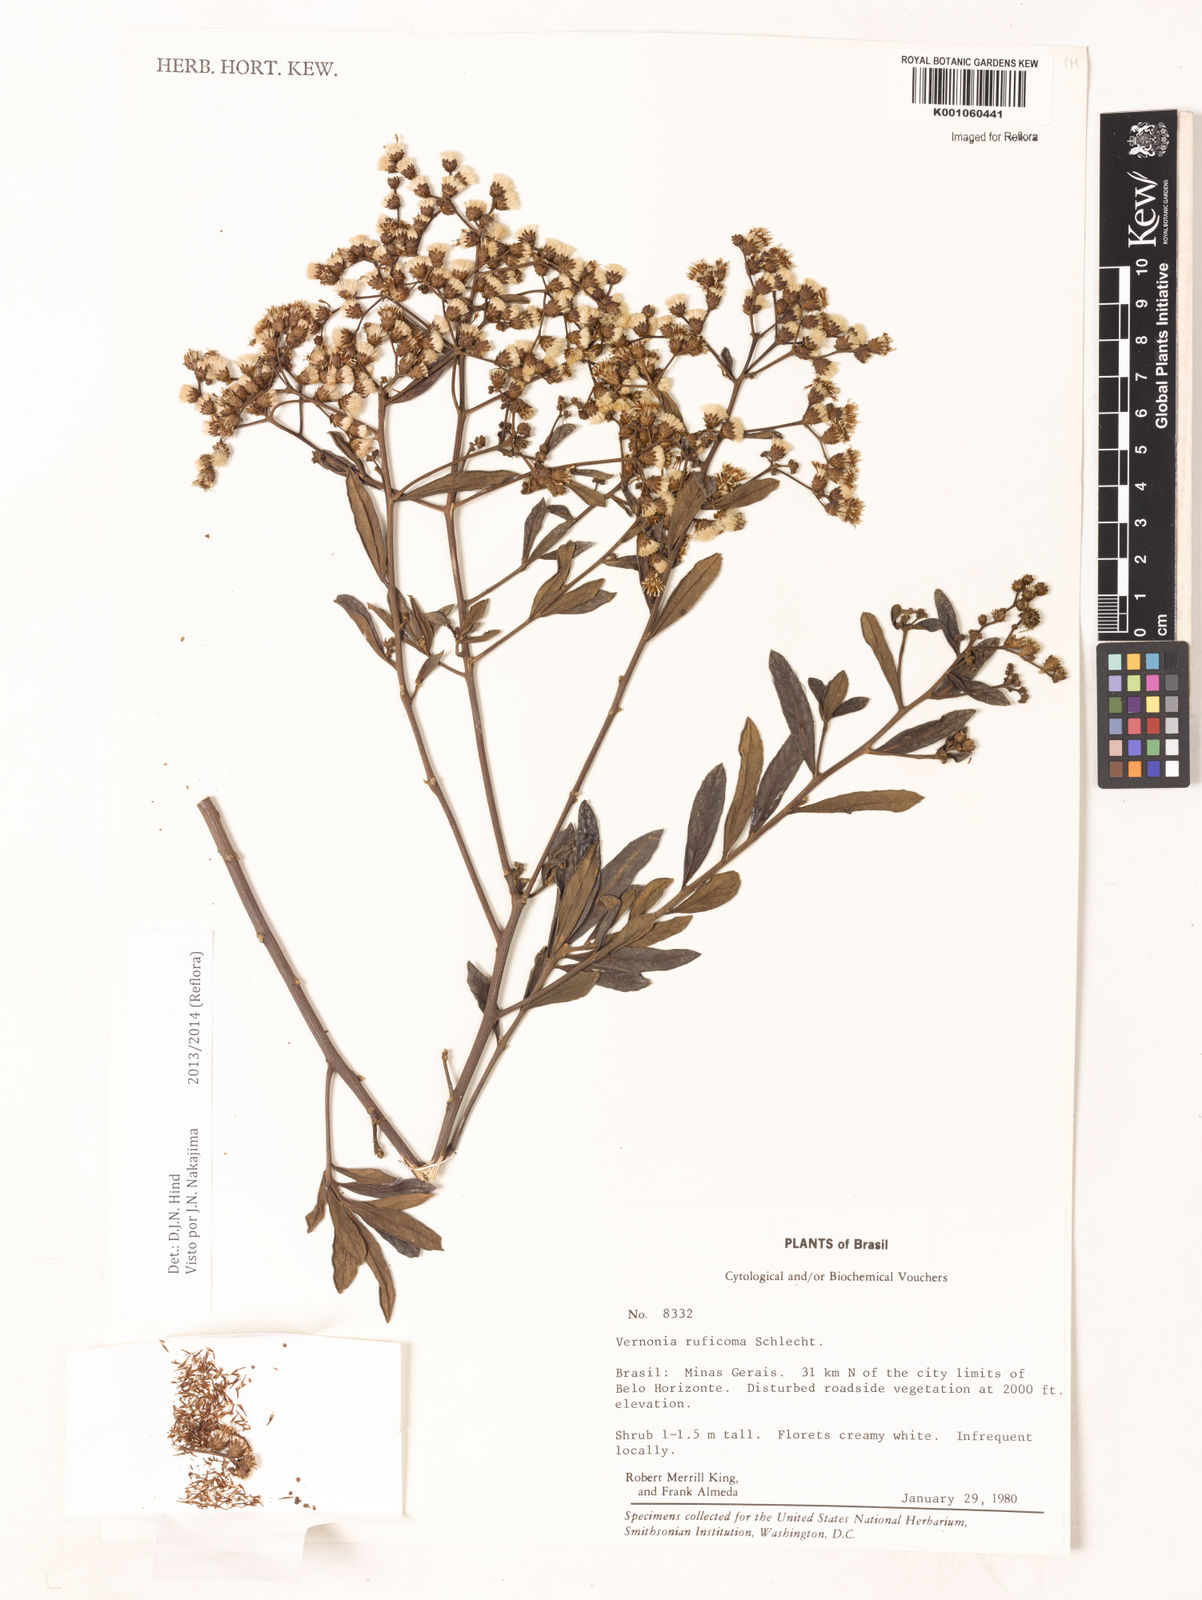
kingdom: Plantae
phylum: Tracheophyta
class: Magnoliopsida
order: Asterales
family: Asteraceae
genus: Vernonia
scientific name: Vernonia
